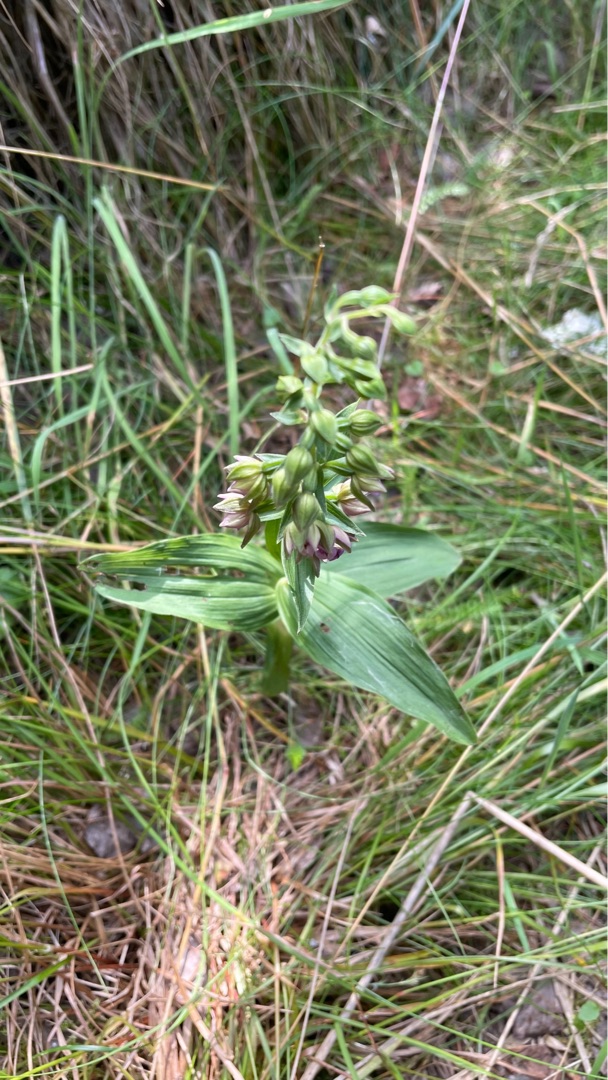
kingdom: Plantae
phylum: Tracheophyta
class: Liliopsida
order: Asparagales
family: Orchidaceae
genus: Epipactis
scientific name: Epipactis helleborine
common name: Hollandsk hullæbe
